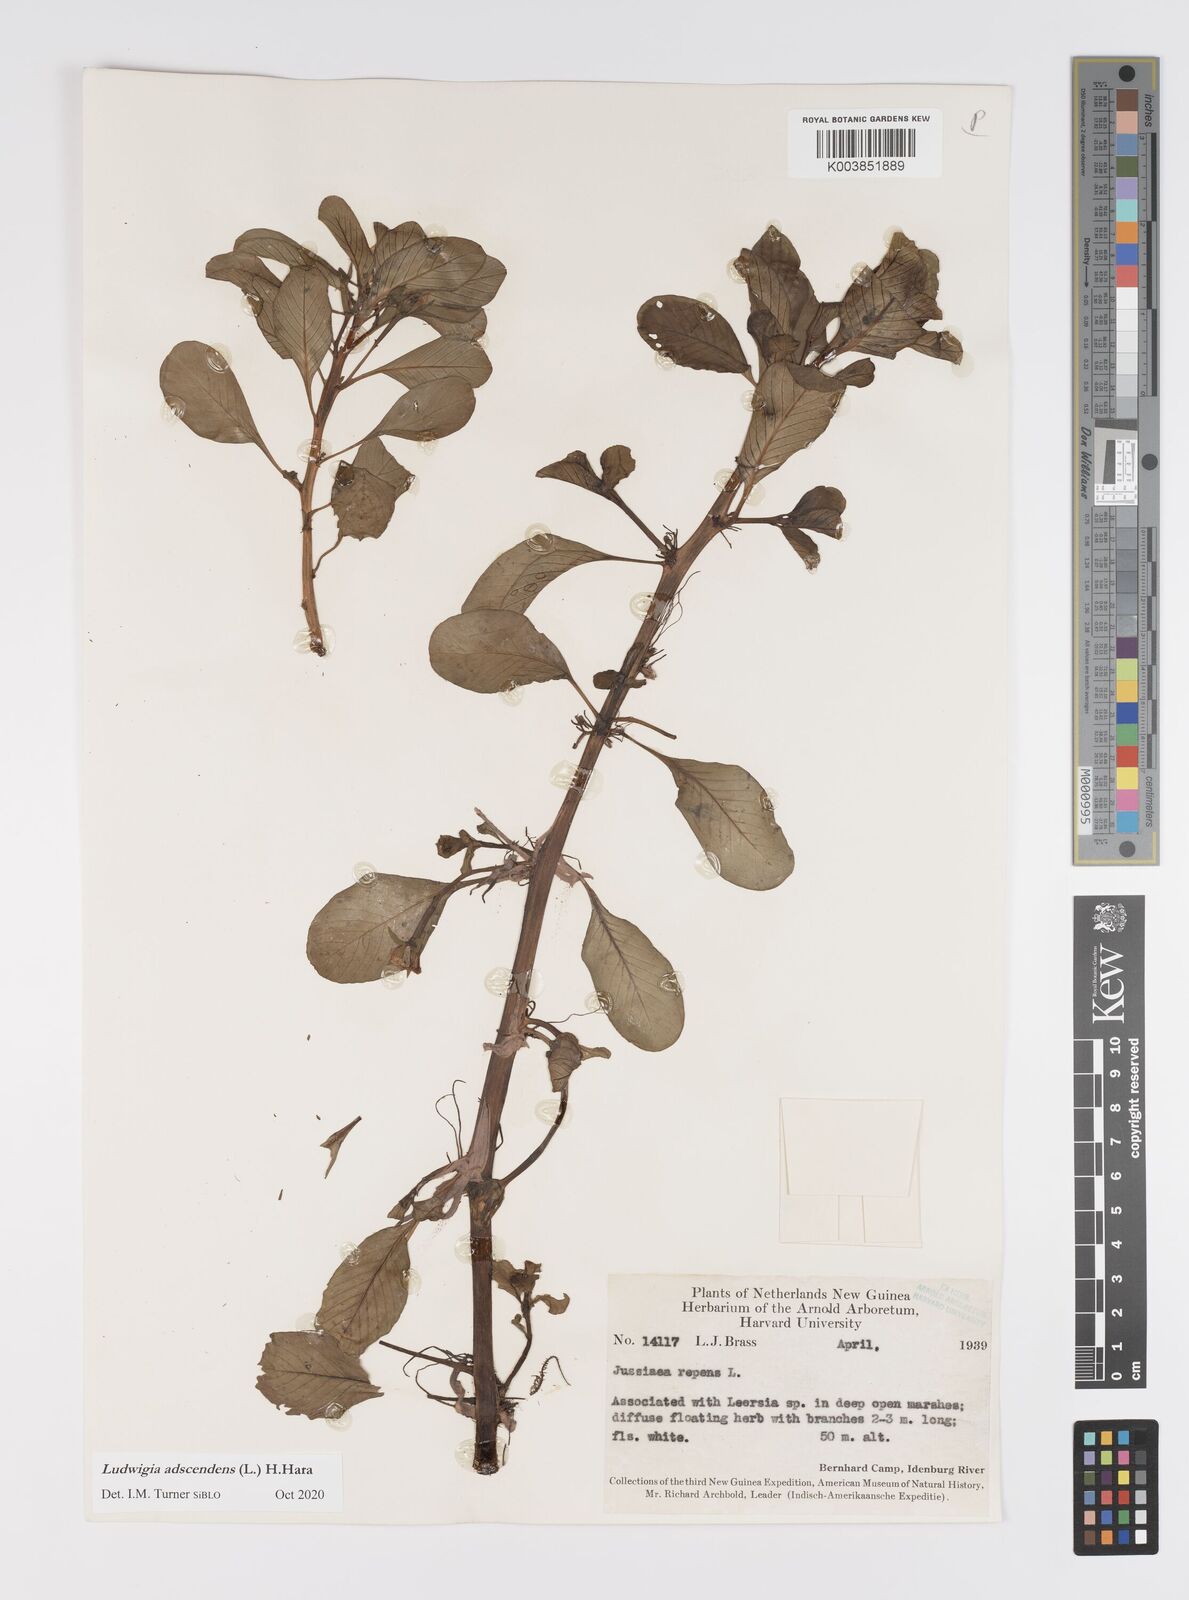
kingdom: Plantae
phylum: Tracheophyta
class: Magnoliopsida
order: Myrtales
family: Onagraceae
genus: Ludwigia
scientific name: Ludwigia adscendens
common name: Creeping water primrose
